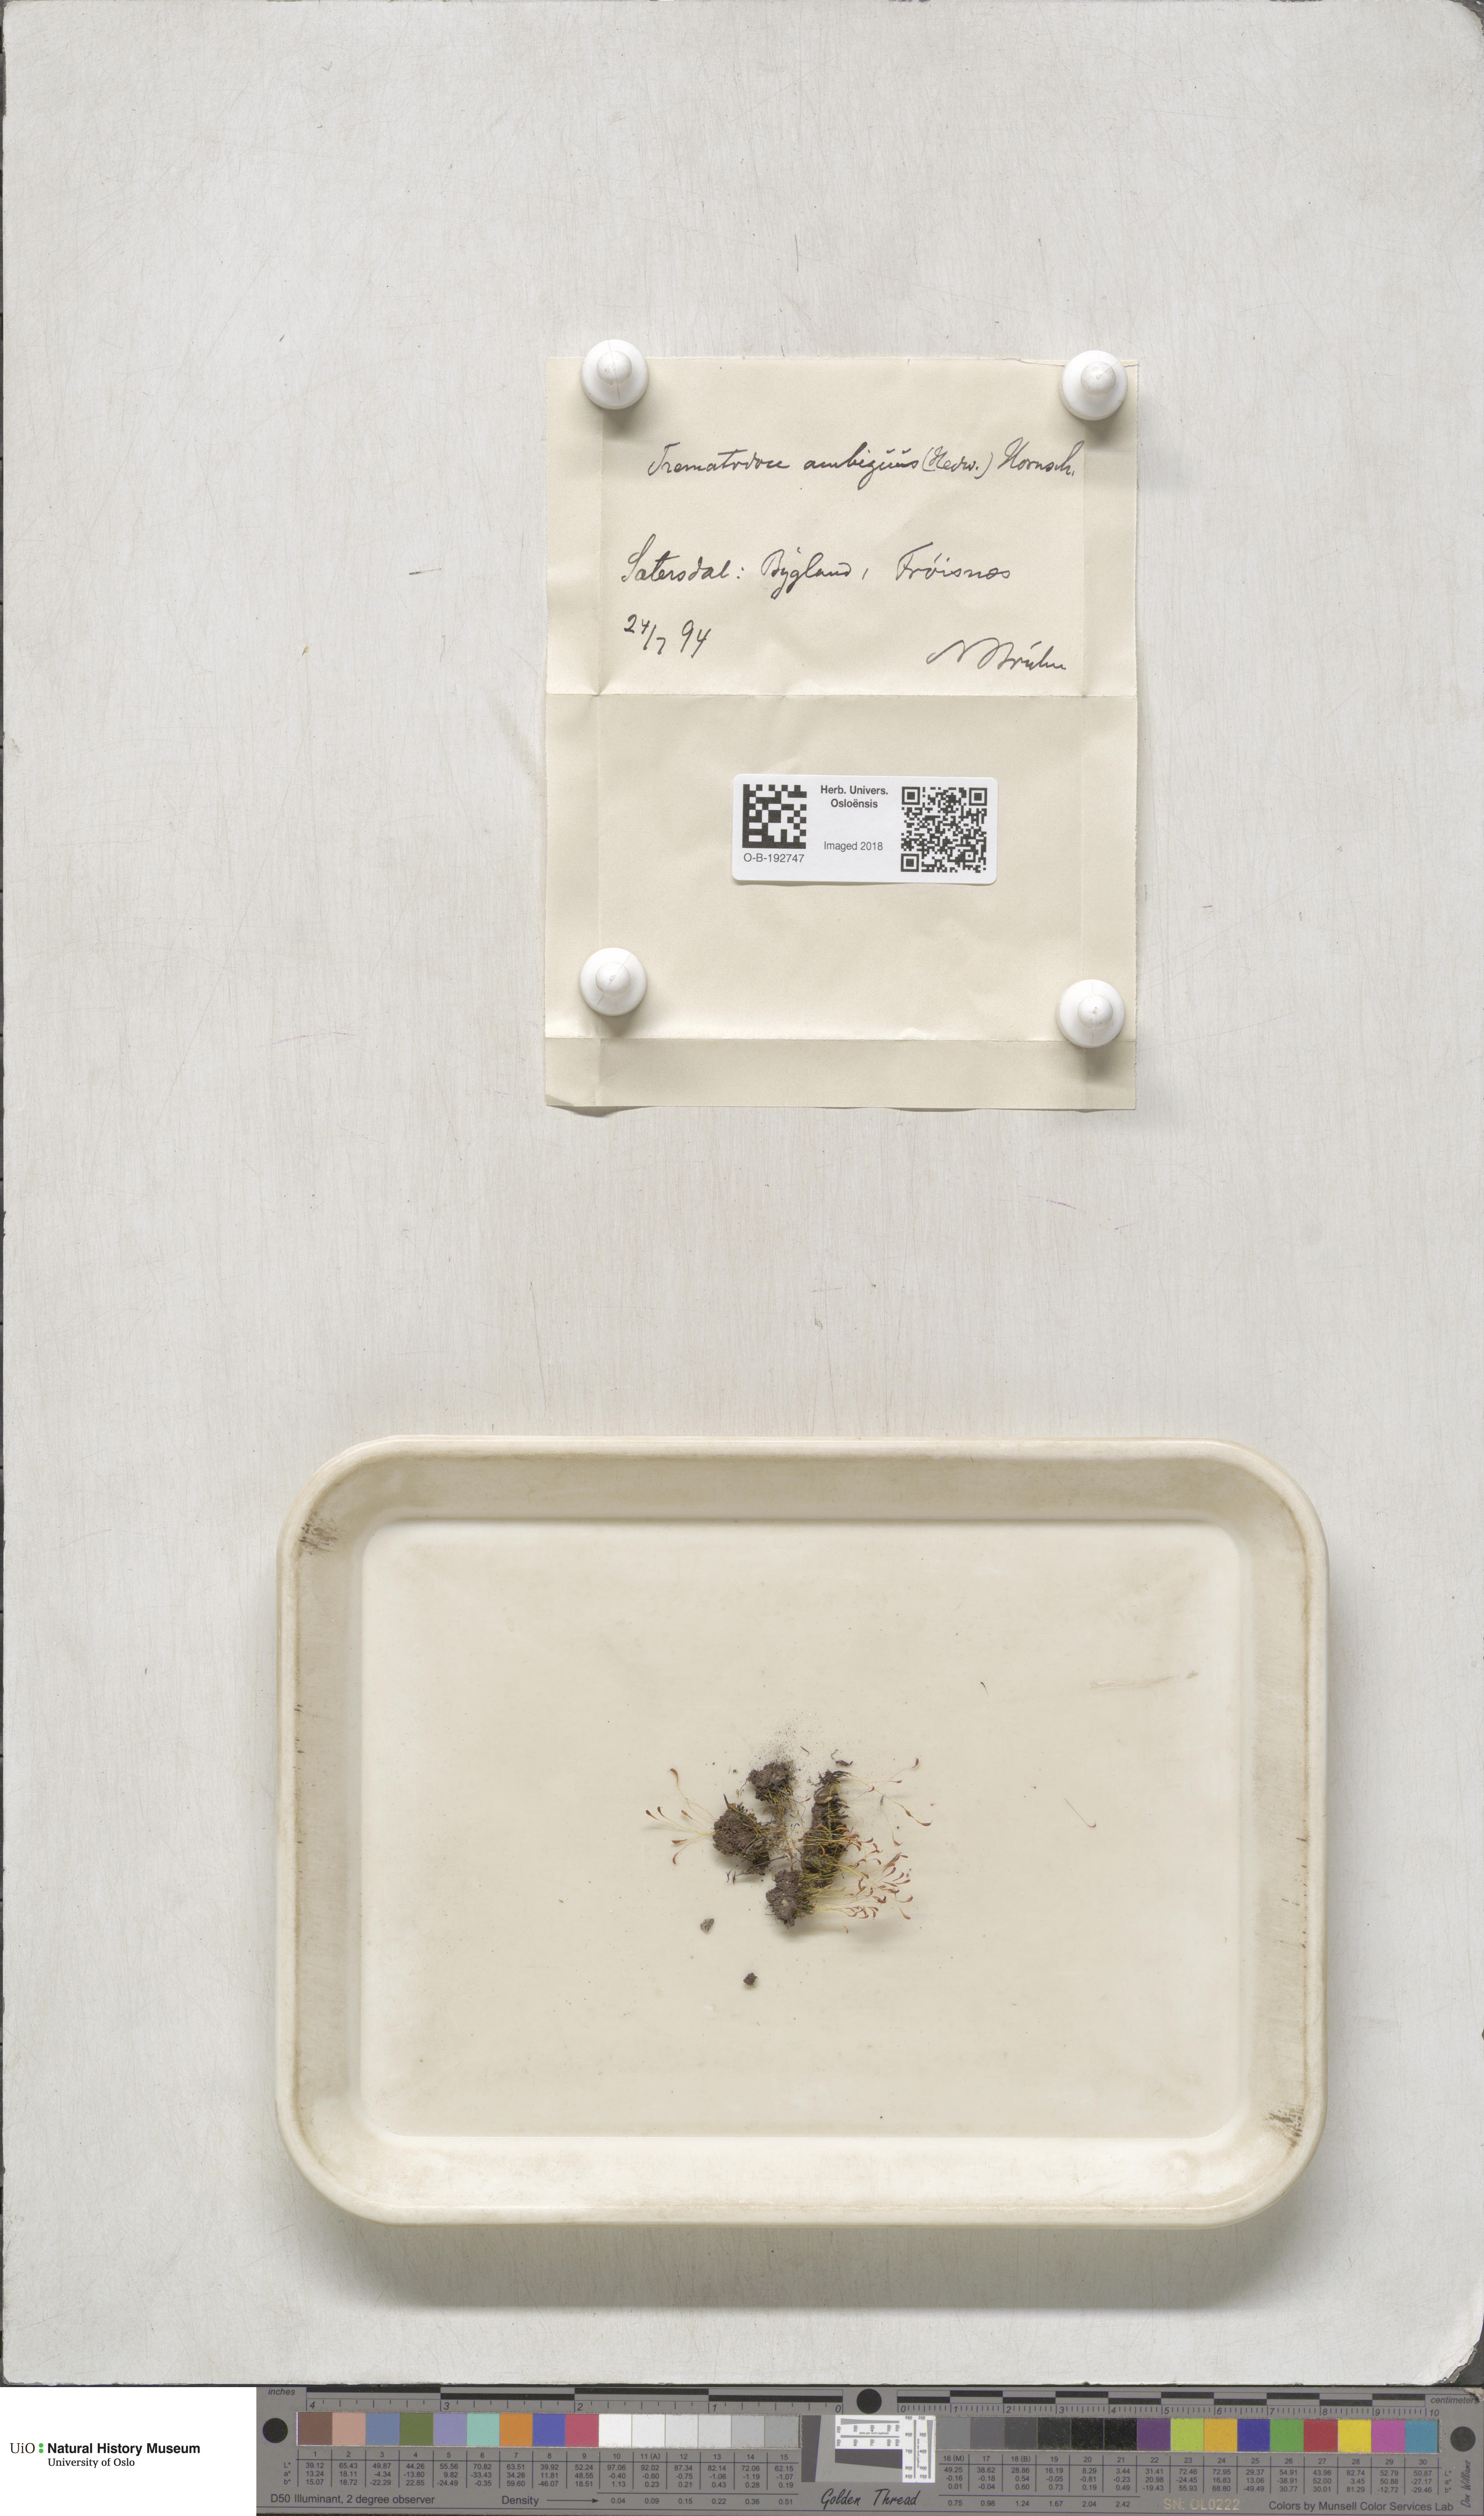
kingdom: Plantae
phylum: Bryophyta
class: Bryopsida
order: Dicranales
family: Bruchiaceae
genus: Trematodon
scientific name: Trematodon ambiguus
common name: Ambiguous long-necked moss
